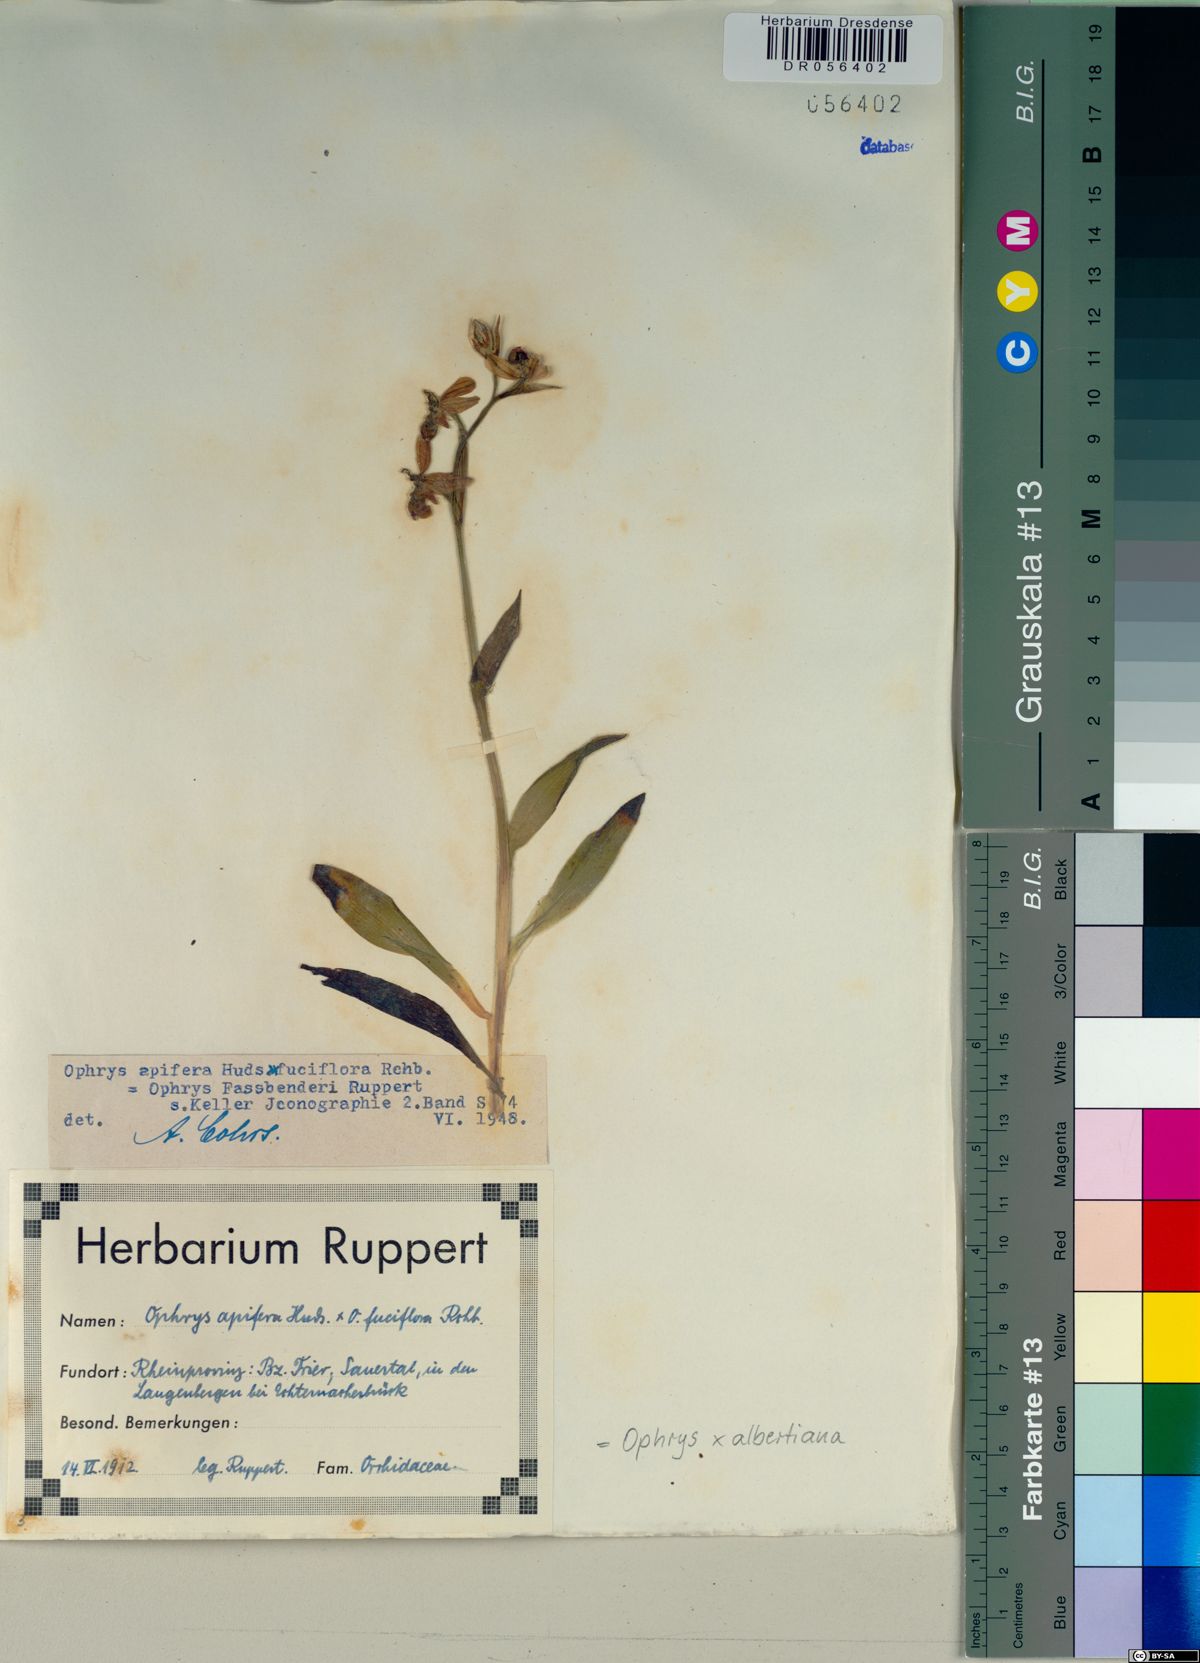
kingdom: Plantae
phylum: Tracheophyta
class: Liliopsida
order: Asparagales
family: Orchidaceae
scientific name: Orchidaceae
